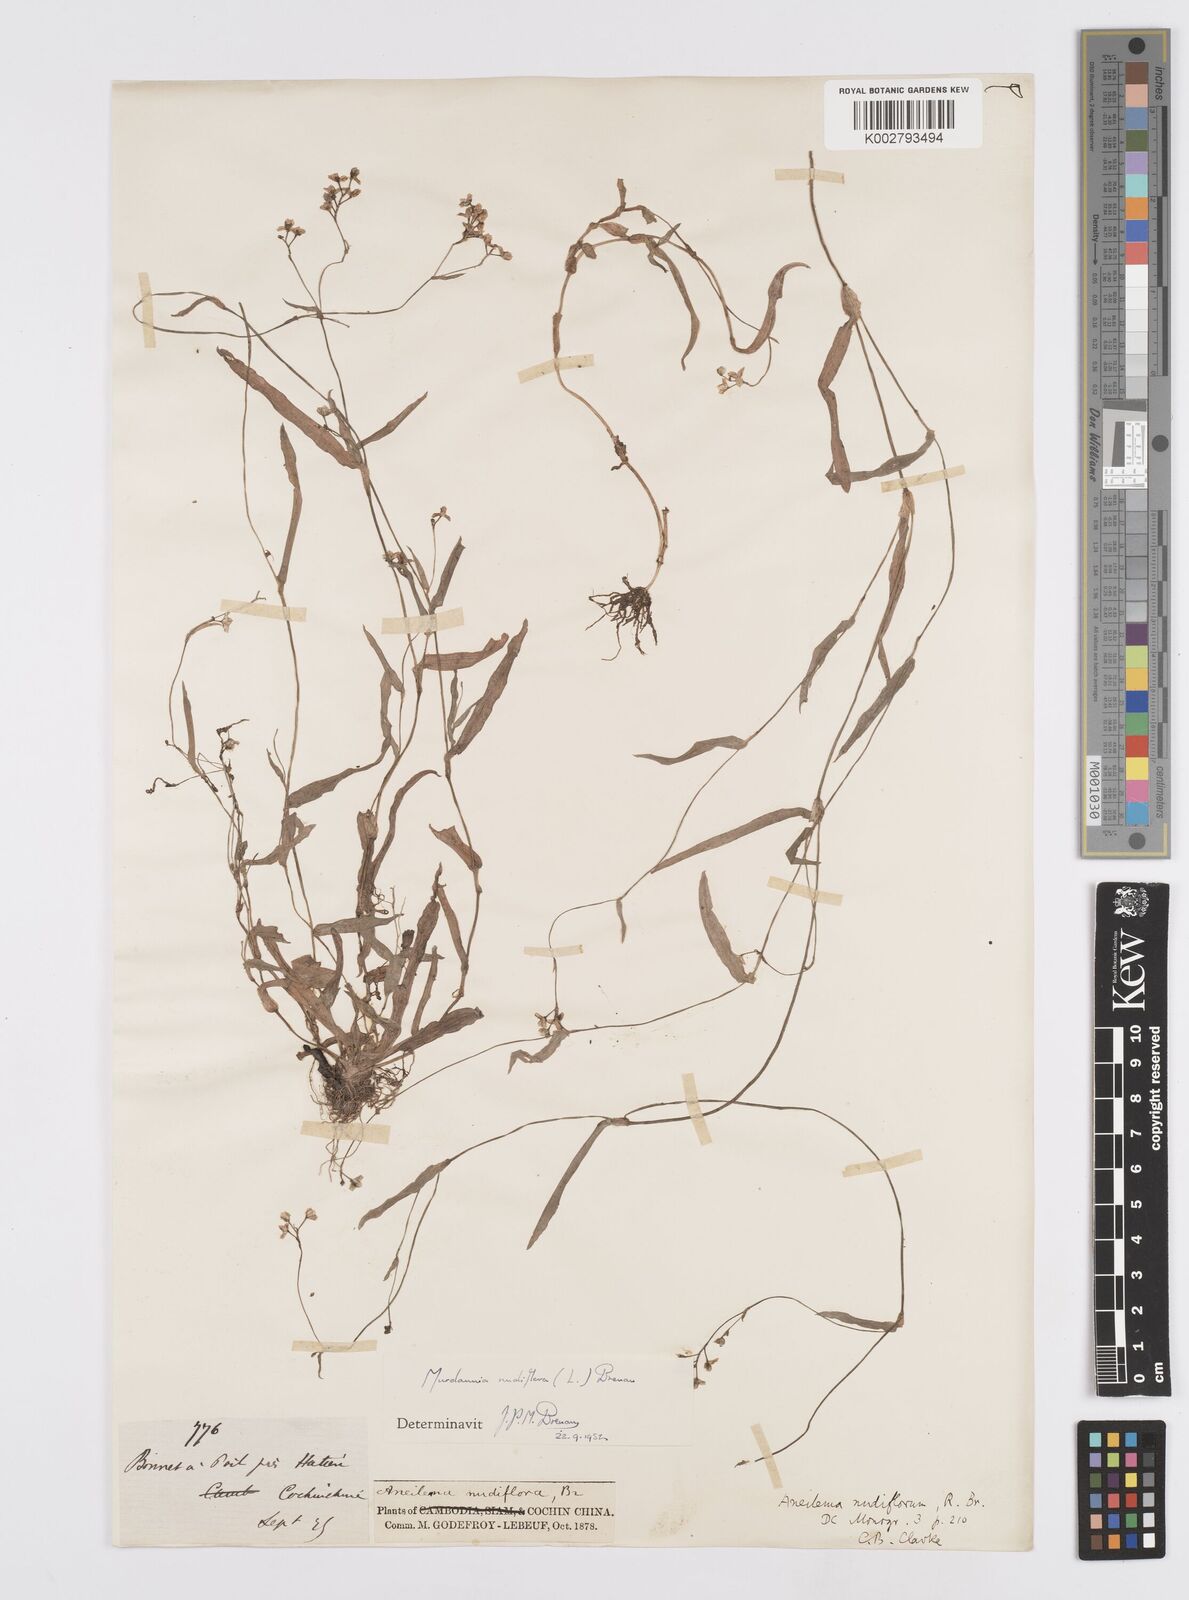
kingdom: Plantae
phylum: Tracheophyta
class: Liliopsida
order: Commelinales
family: Commelinaceae
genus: Murdannia
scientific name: Murdannia nudiflora
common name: Nakedstem dewflower
